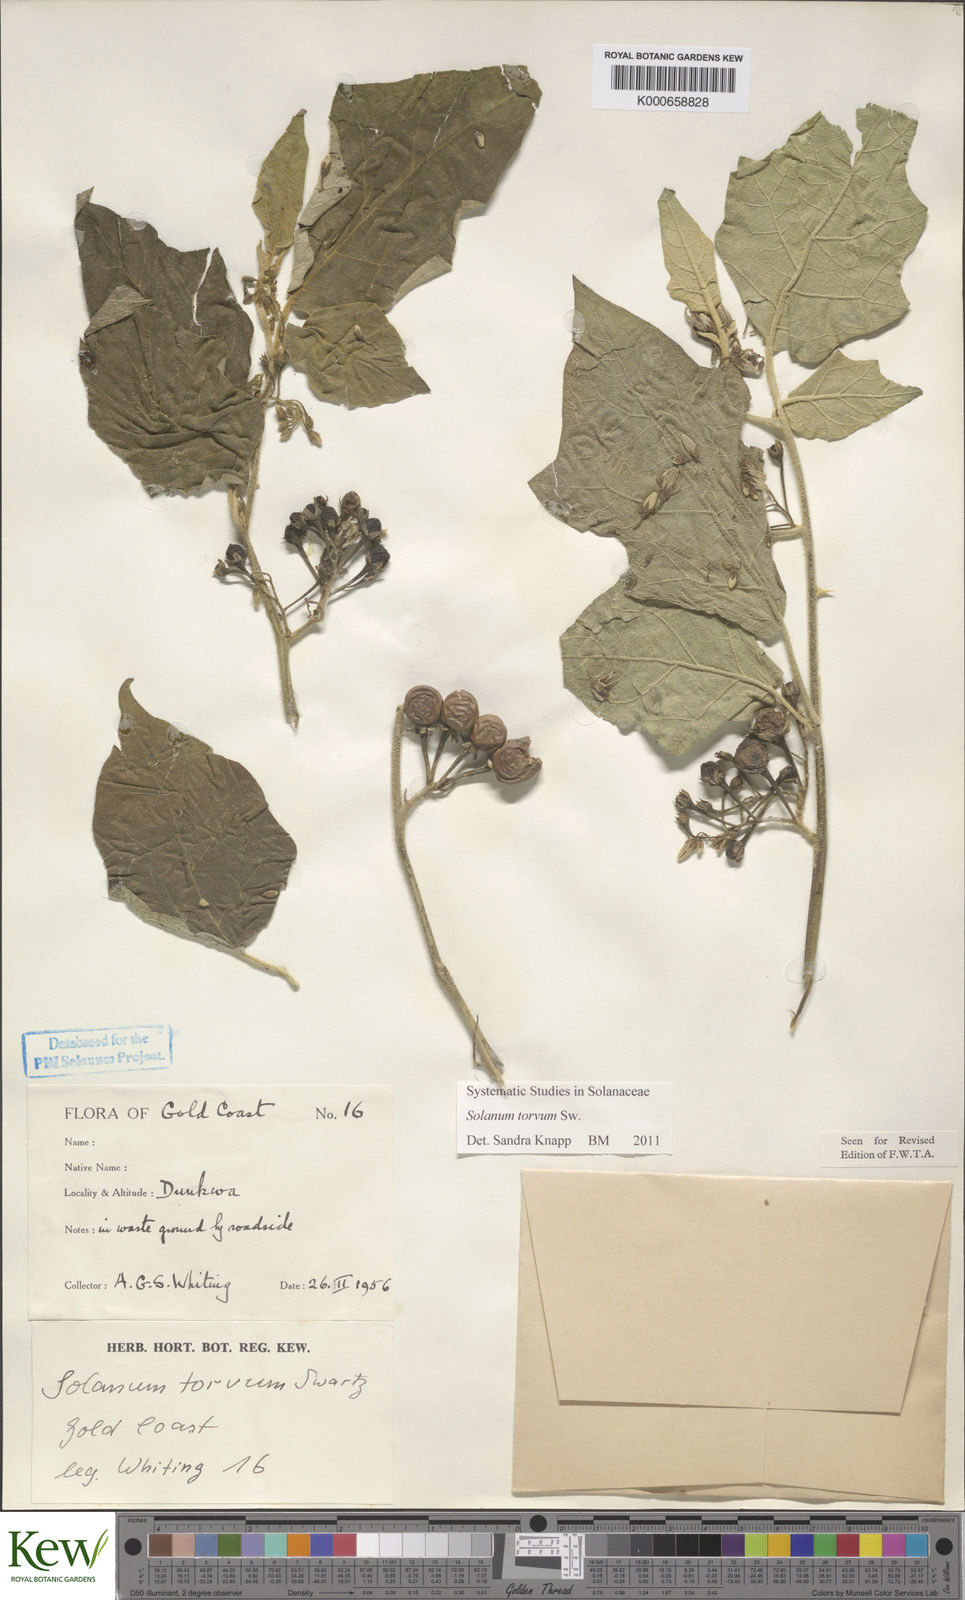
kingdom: Plantae
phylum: Tracheophyta
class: Magnoliopsida
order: Solanales
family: Solanaceae
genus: Solanum
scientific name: Solanum torvum
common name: Turkey berry
